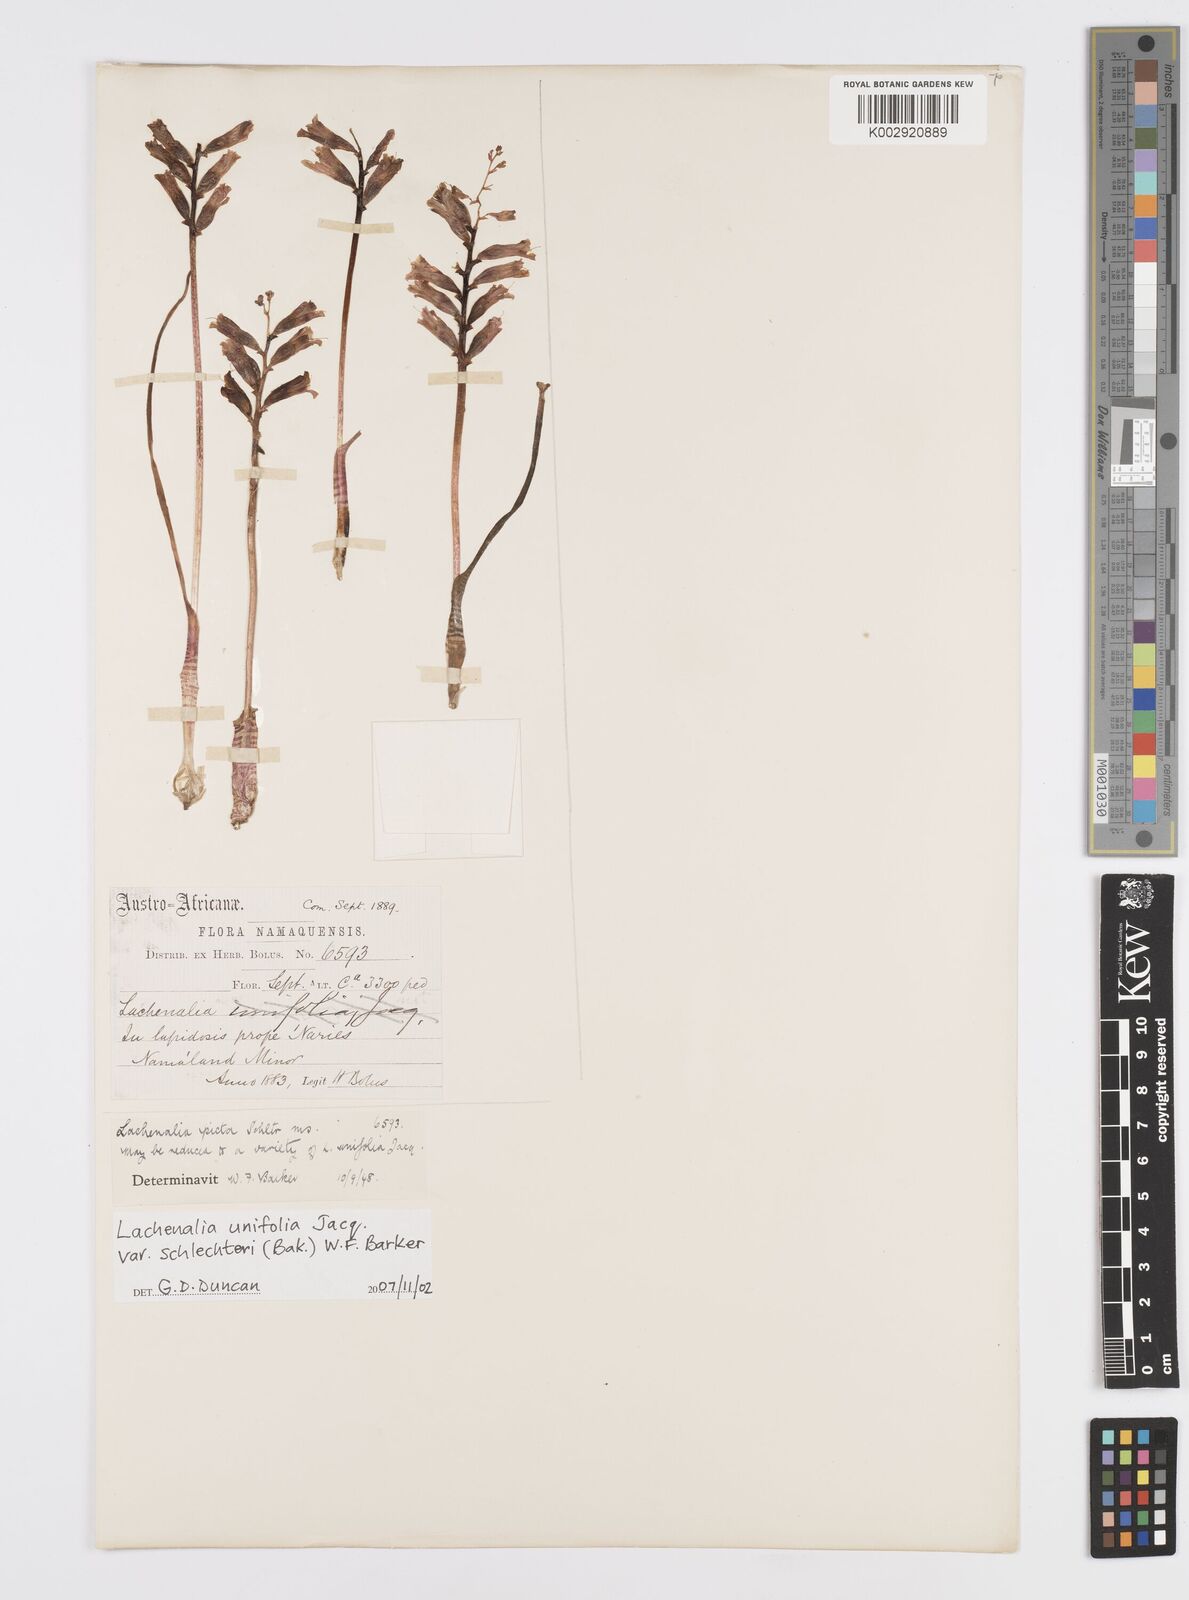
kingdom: Plantae
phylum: Tracheophyta
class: Liliopsida
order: Asparagales
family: Asparagaceae
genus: Lachenalia
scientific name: Lachenalia
